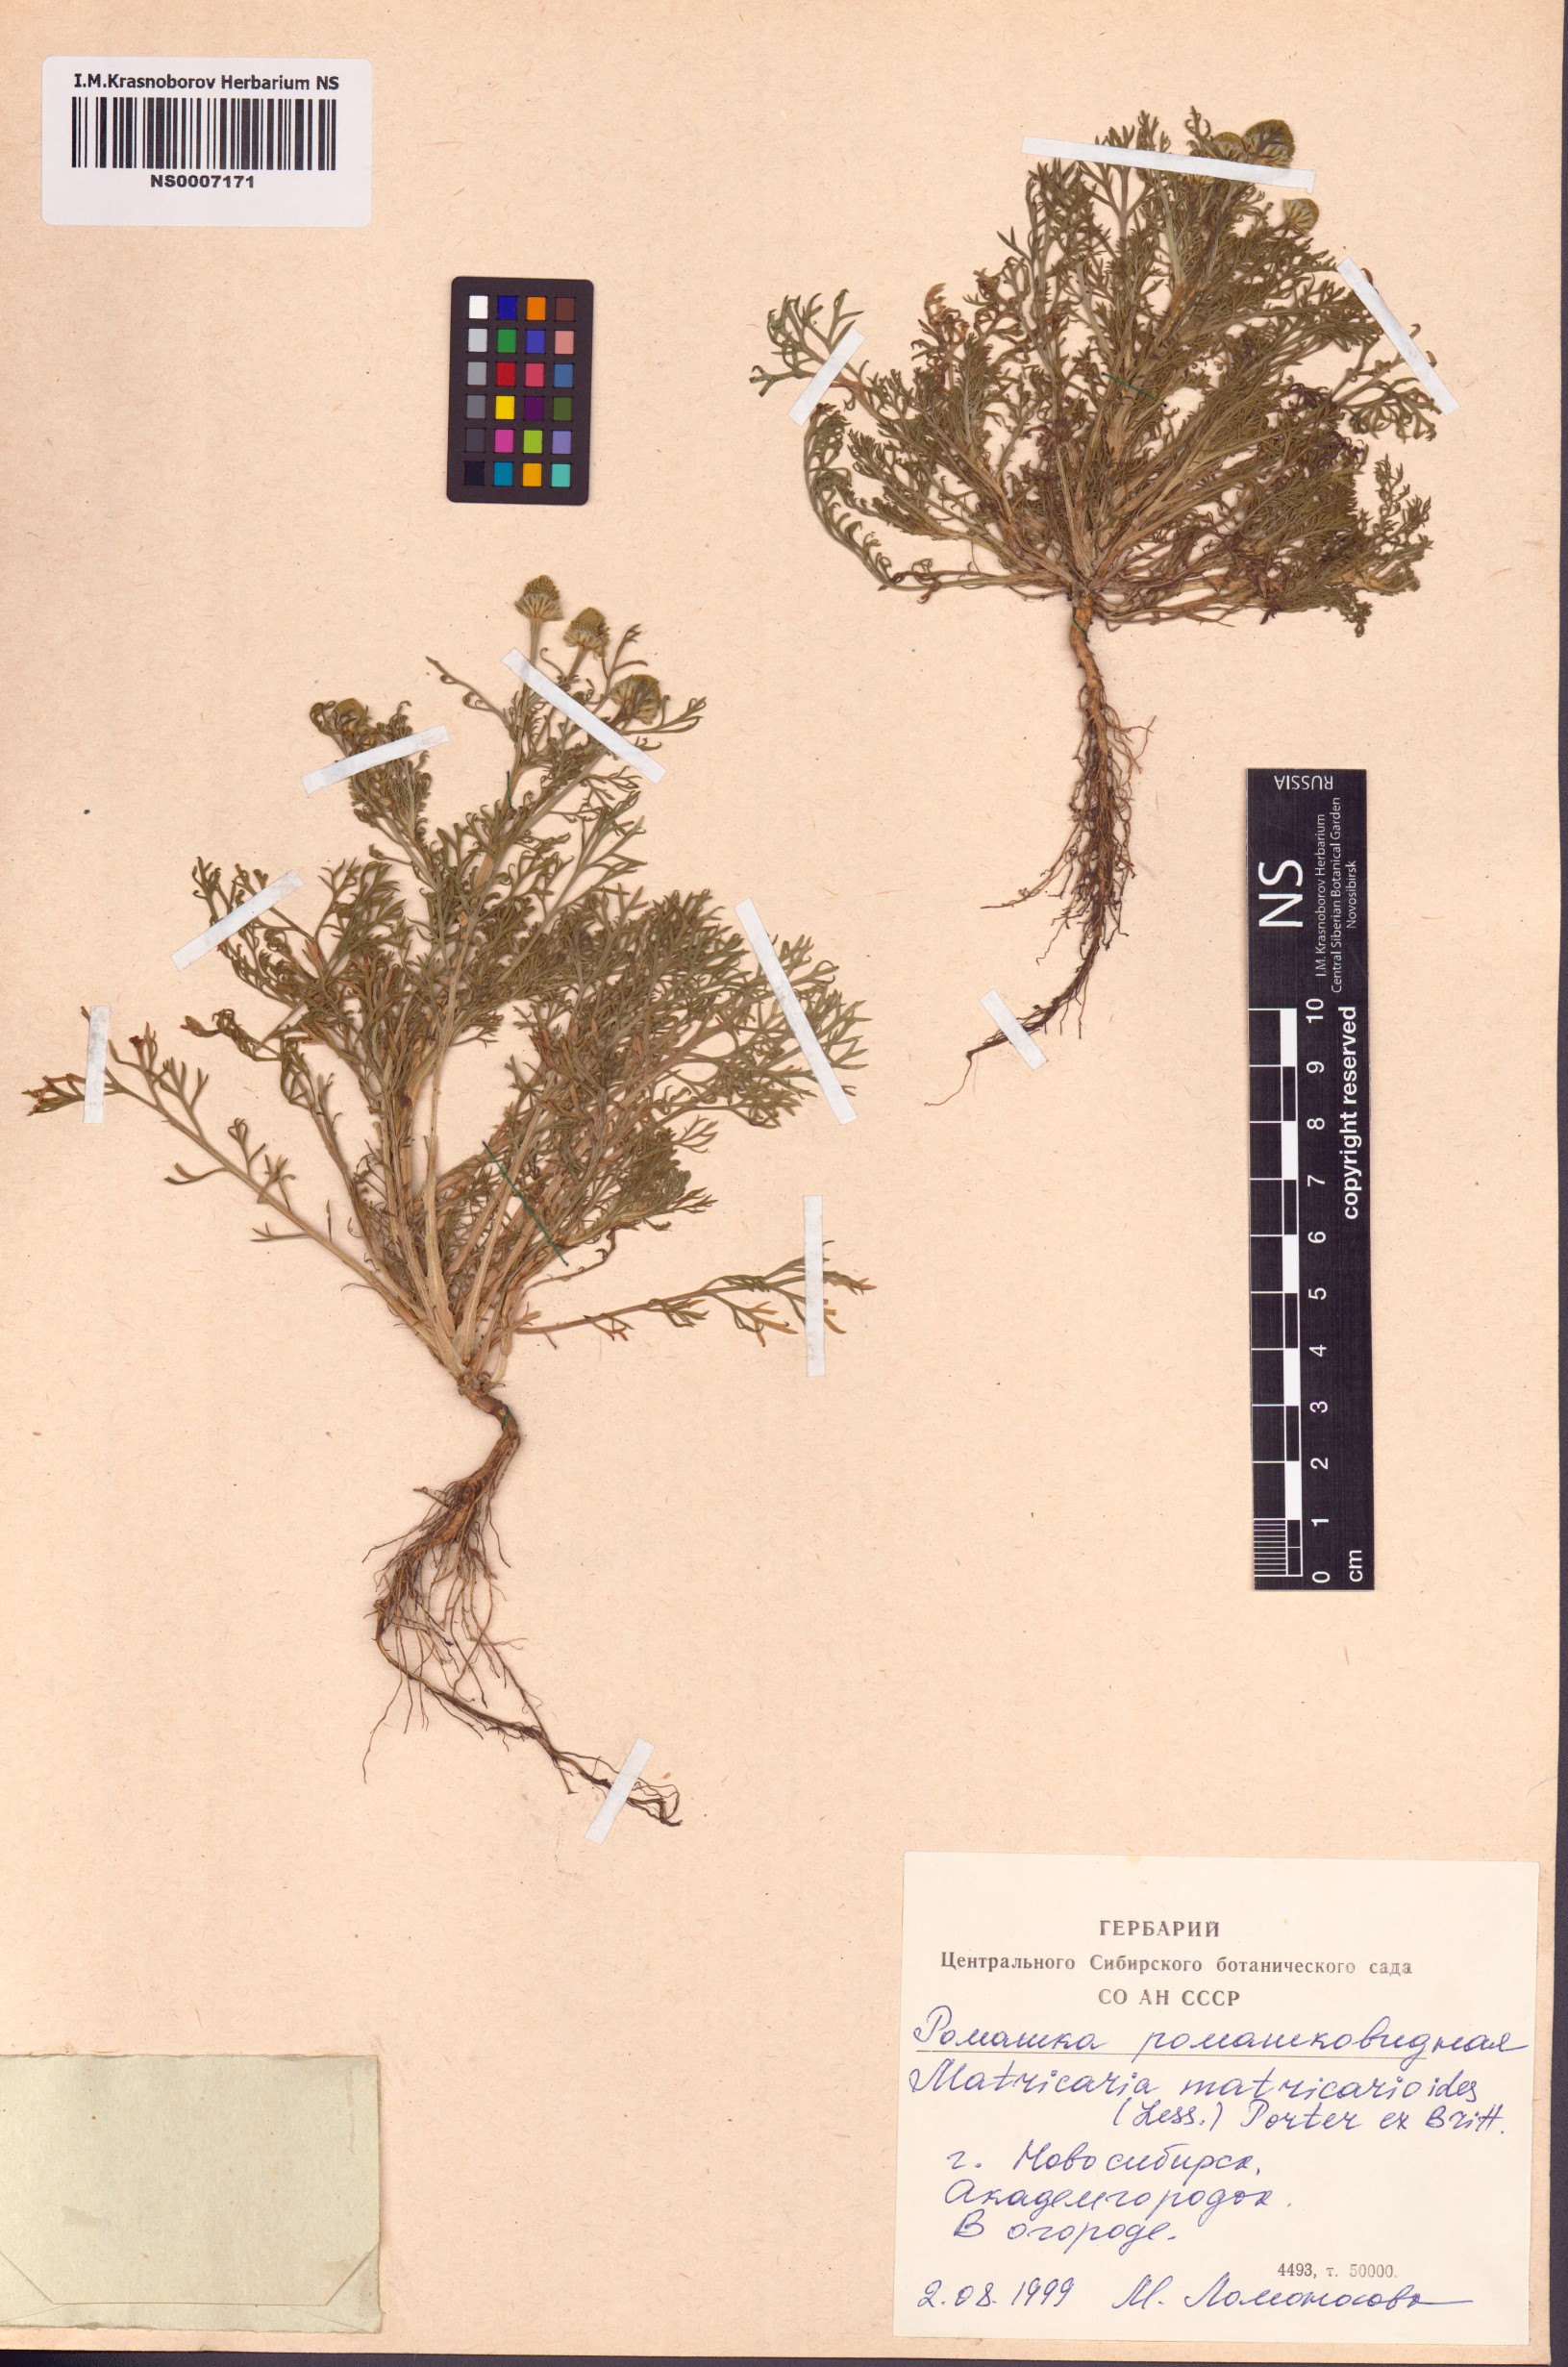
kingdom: Plantae
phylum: Tracheophyta
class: Magnoliopsida
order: Asterales
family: Asteraceae
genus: Matricaria
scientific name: Matricaria discoidea
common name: Disc mayweed
